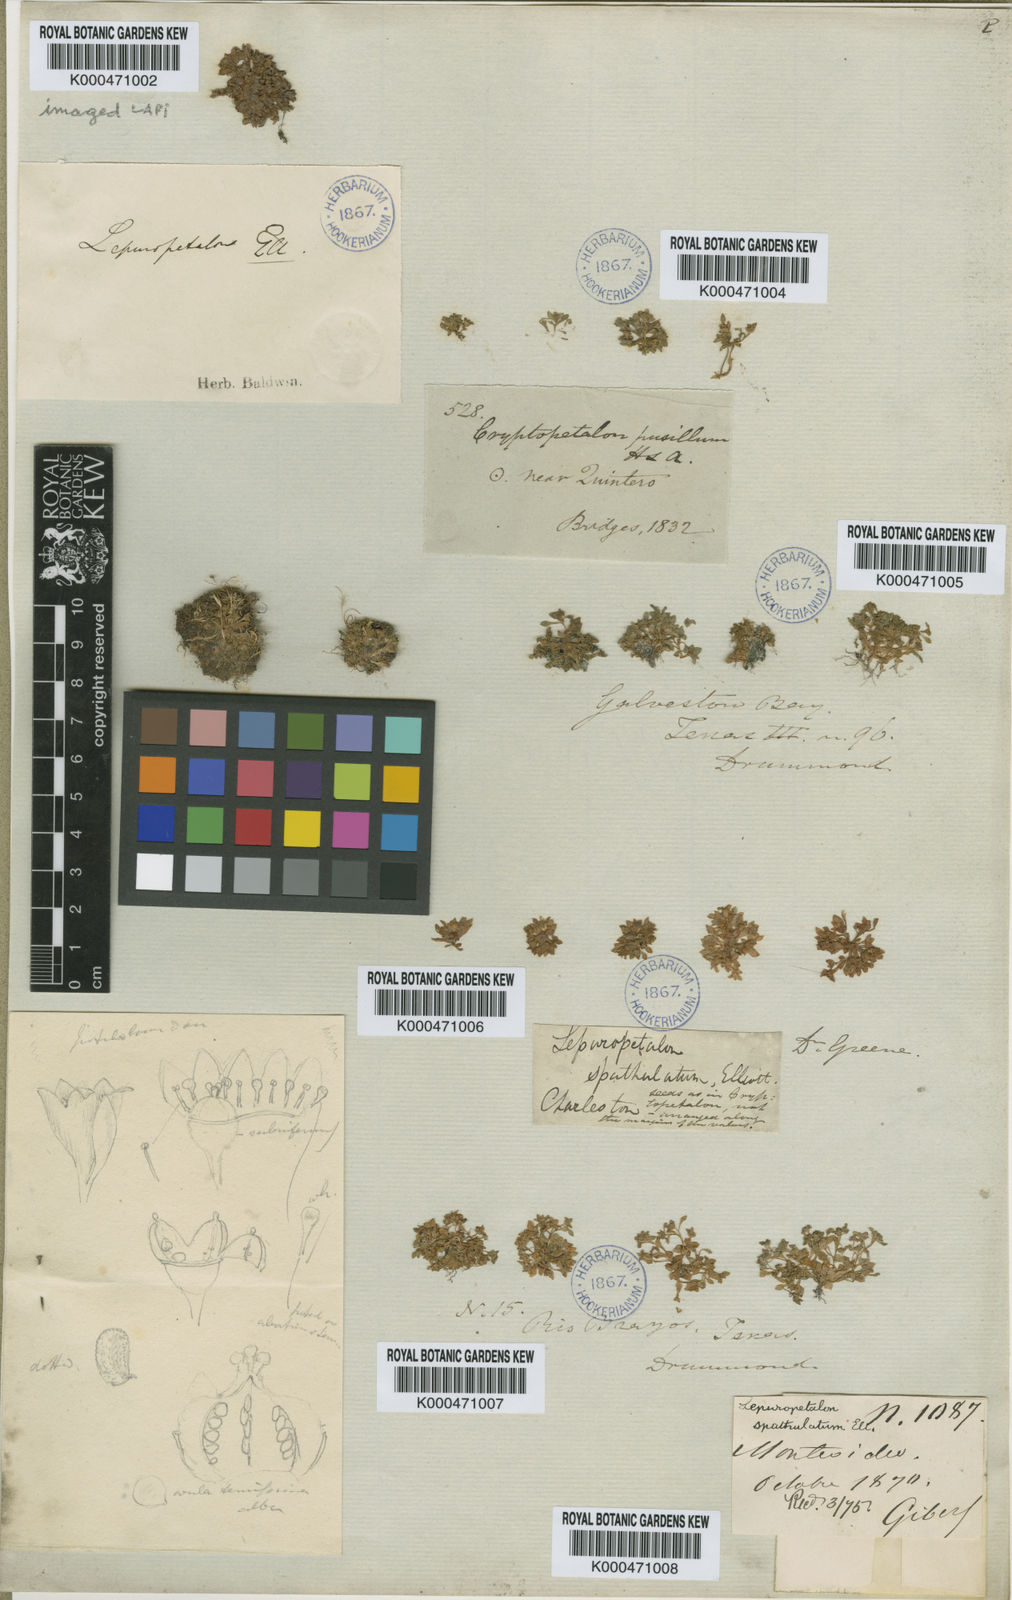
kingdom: Plantae
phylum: Tracheophyta
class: Magnoliopsida
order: Celastrales
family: Parnassiaceae
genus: Lepuropetalon
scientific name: Lepuropetalon spathulatum
